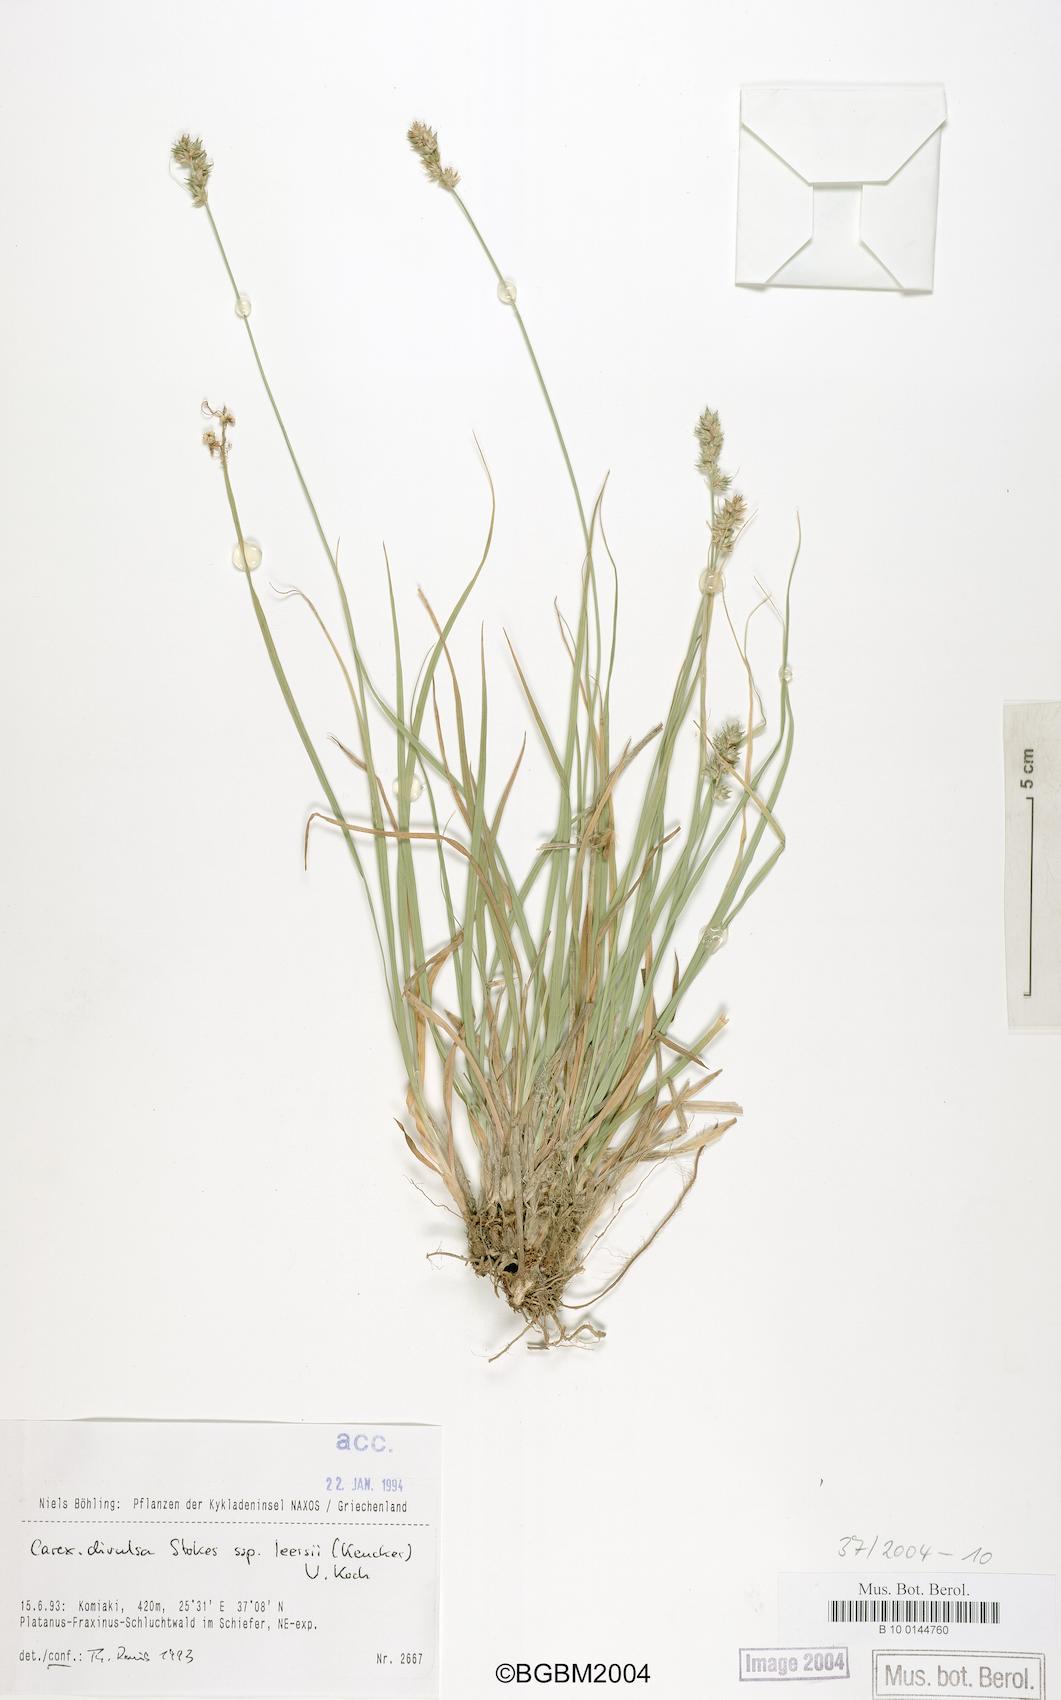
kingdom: Plantae
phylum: Tracheophyta
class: Liliopsida
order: Poales
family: Cyperaceae
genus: Carex
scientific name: Carex leersii
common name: Leers' sedge
